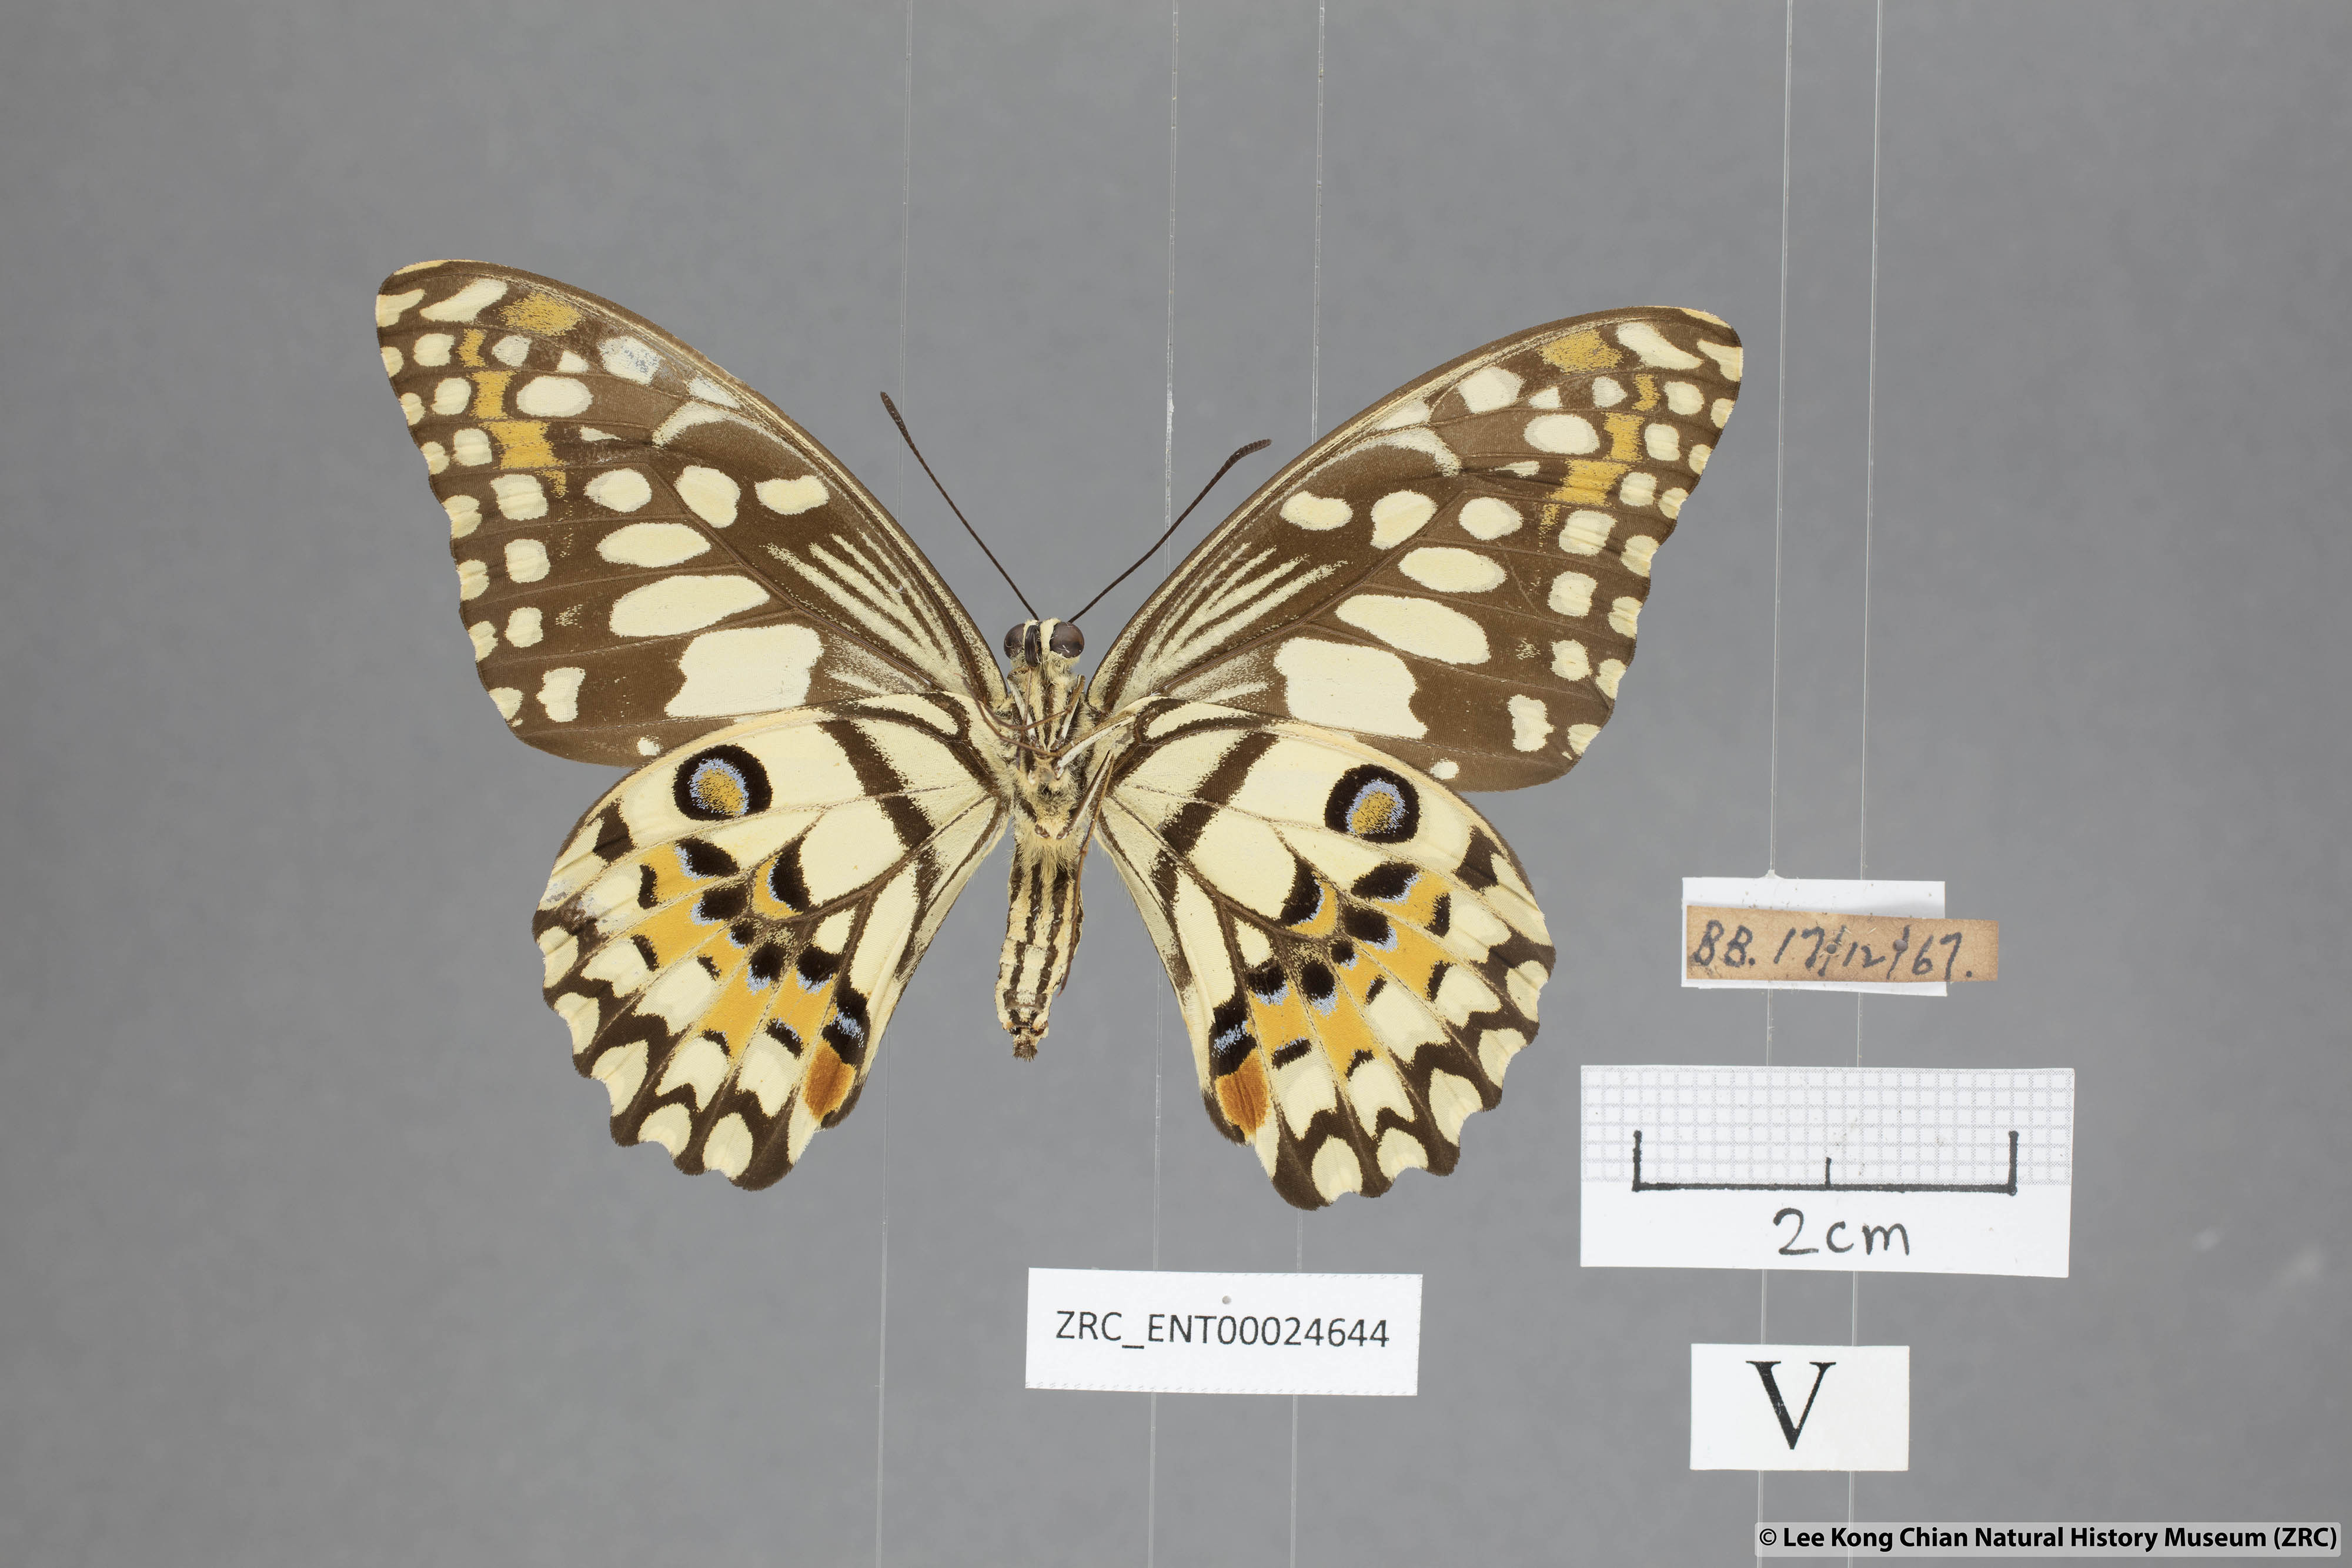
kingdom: Animalia
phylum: Arthropoda
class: Insecta
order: Lepidoptera
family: Papilionidae
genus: Papilio
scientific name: Papilio demoleus
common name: Lime butterfly
